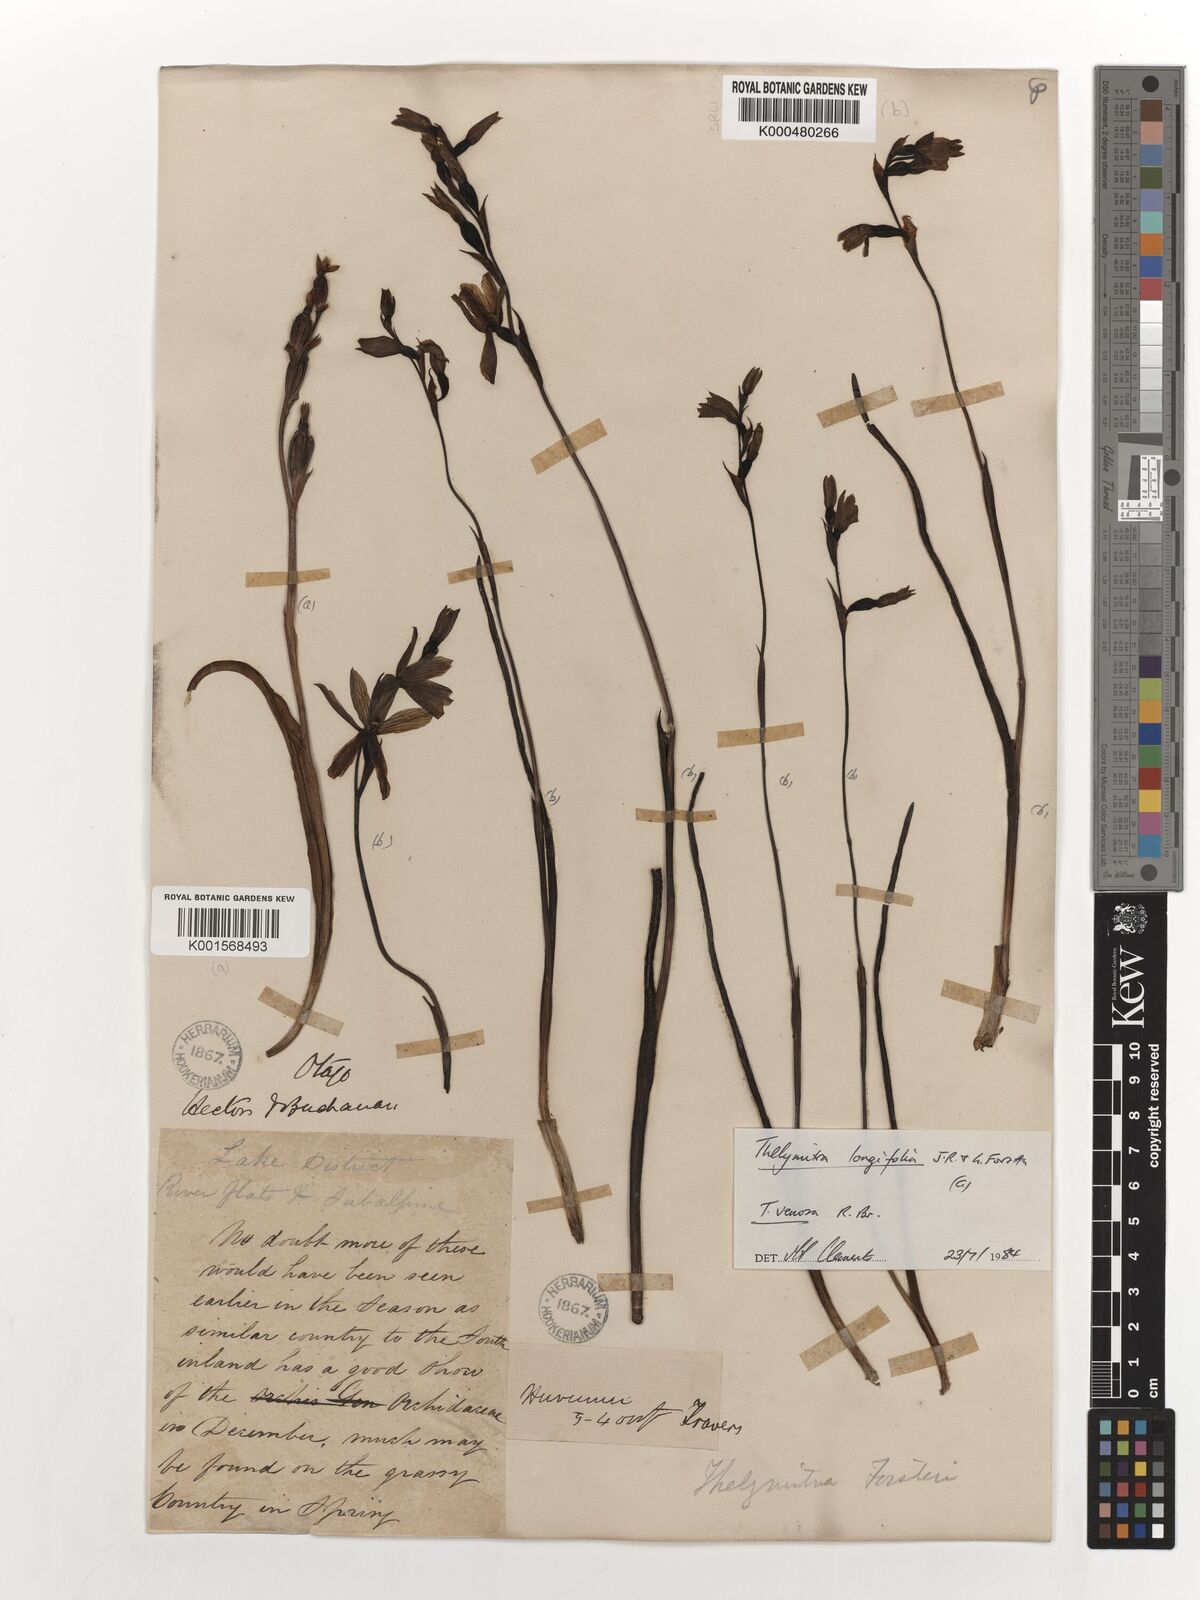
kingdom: Plantae
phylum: Tracheophyta
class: Liliopsida
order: Asparagales
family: Orchidaceae
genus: Thelymitra
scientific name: Thelymitra cyanea
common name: Blue sun-orchid
